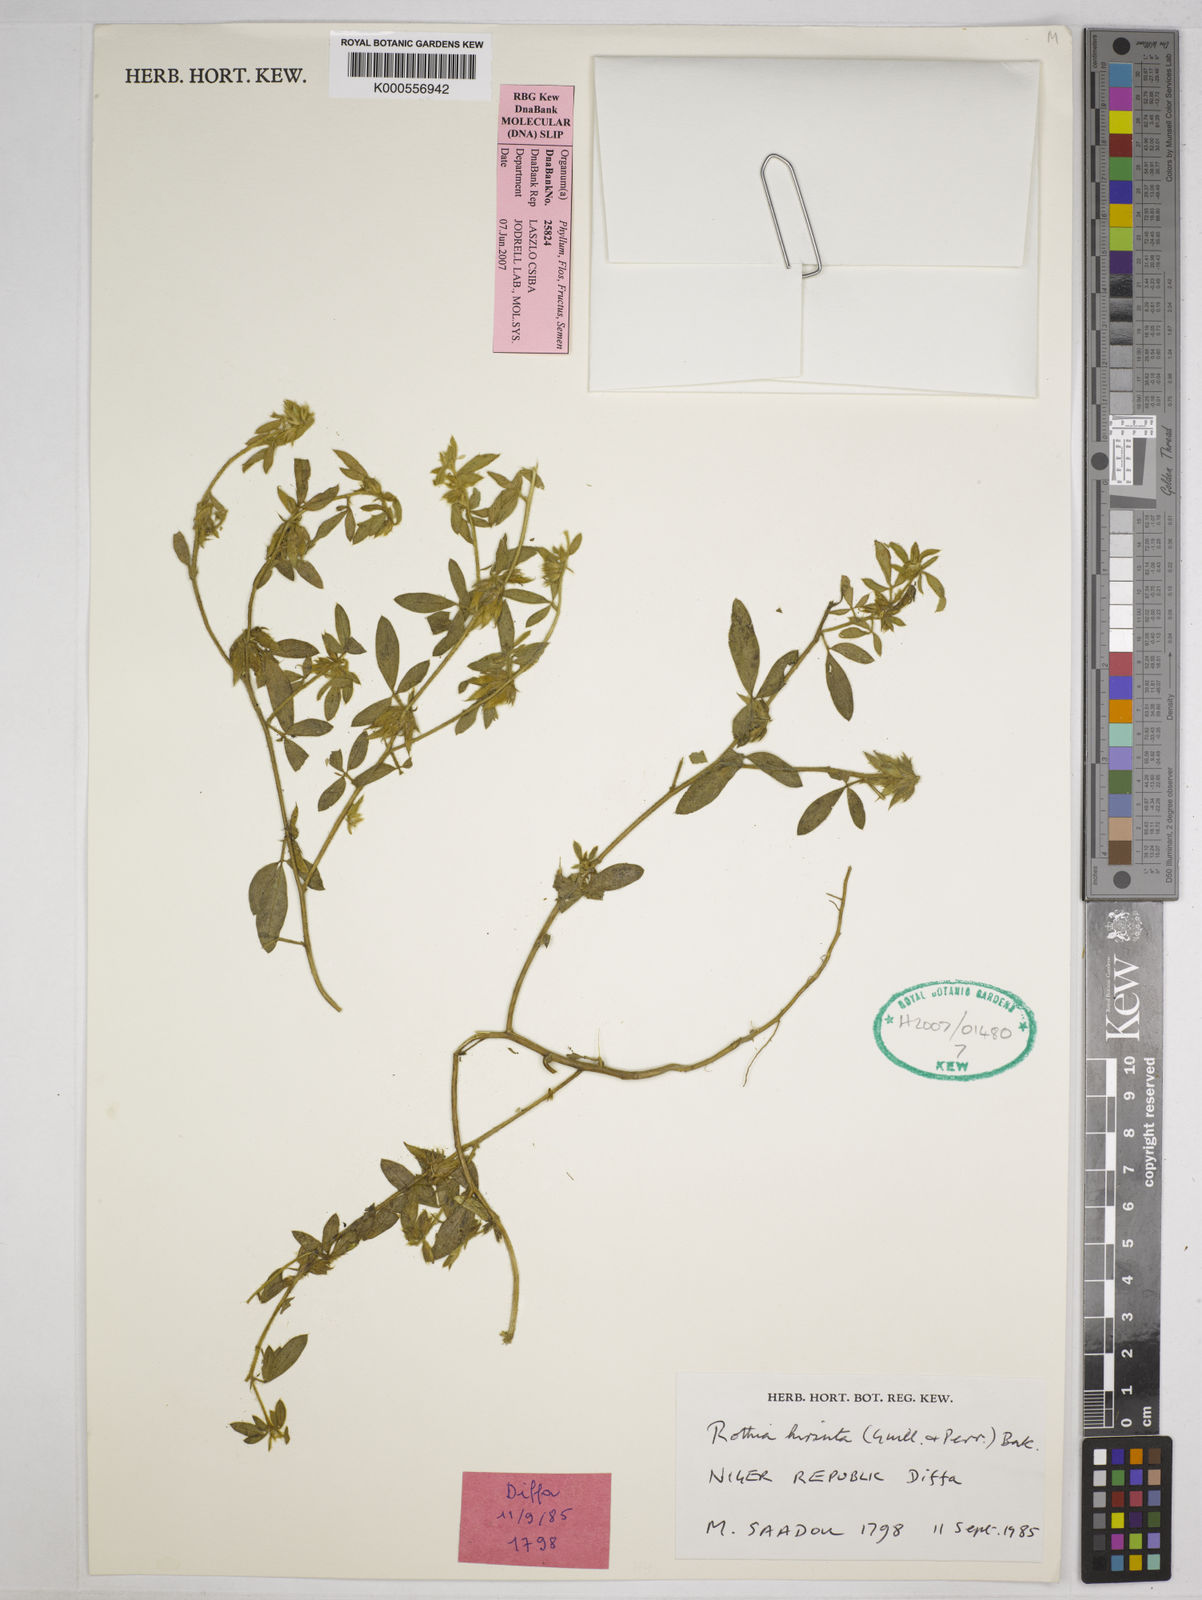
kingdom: Plantae
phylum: Tracheophyta
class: Magnoliopsida
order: Fabales
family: Fabaceae
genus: Rothia
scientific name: Rothia hirsuta
